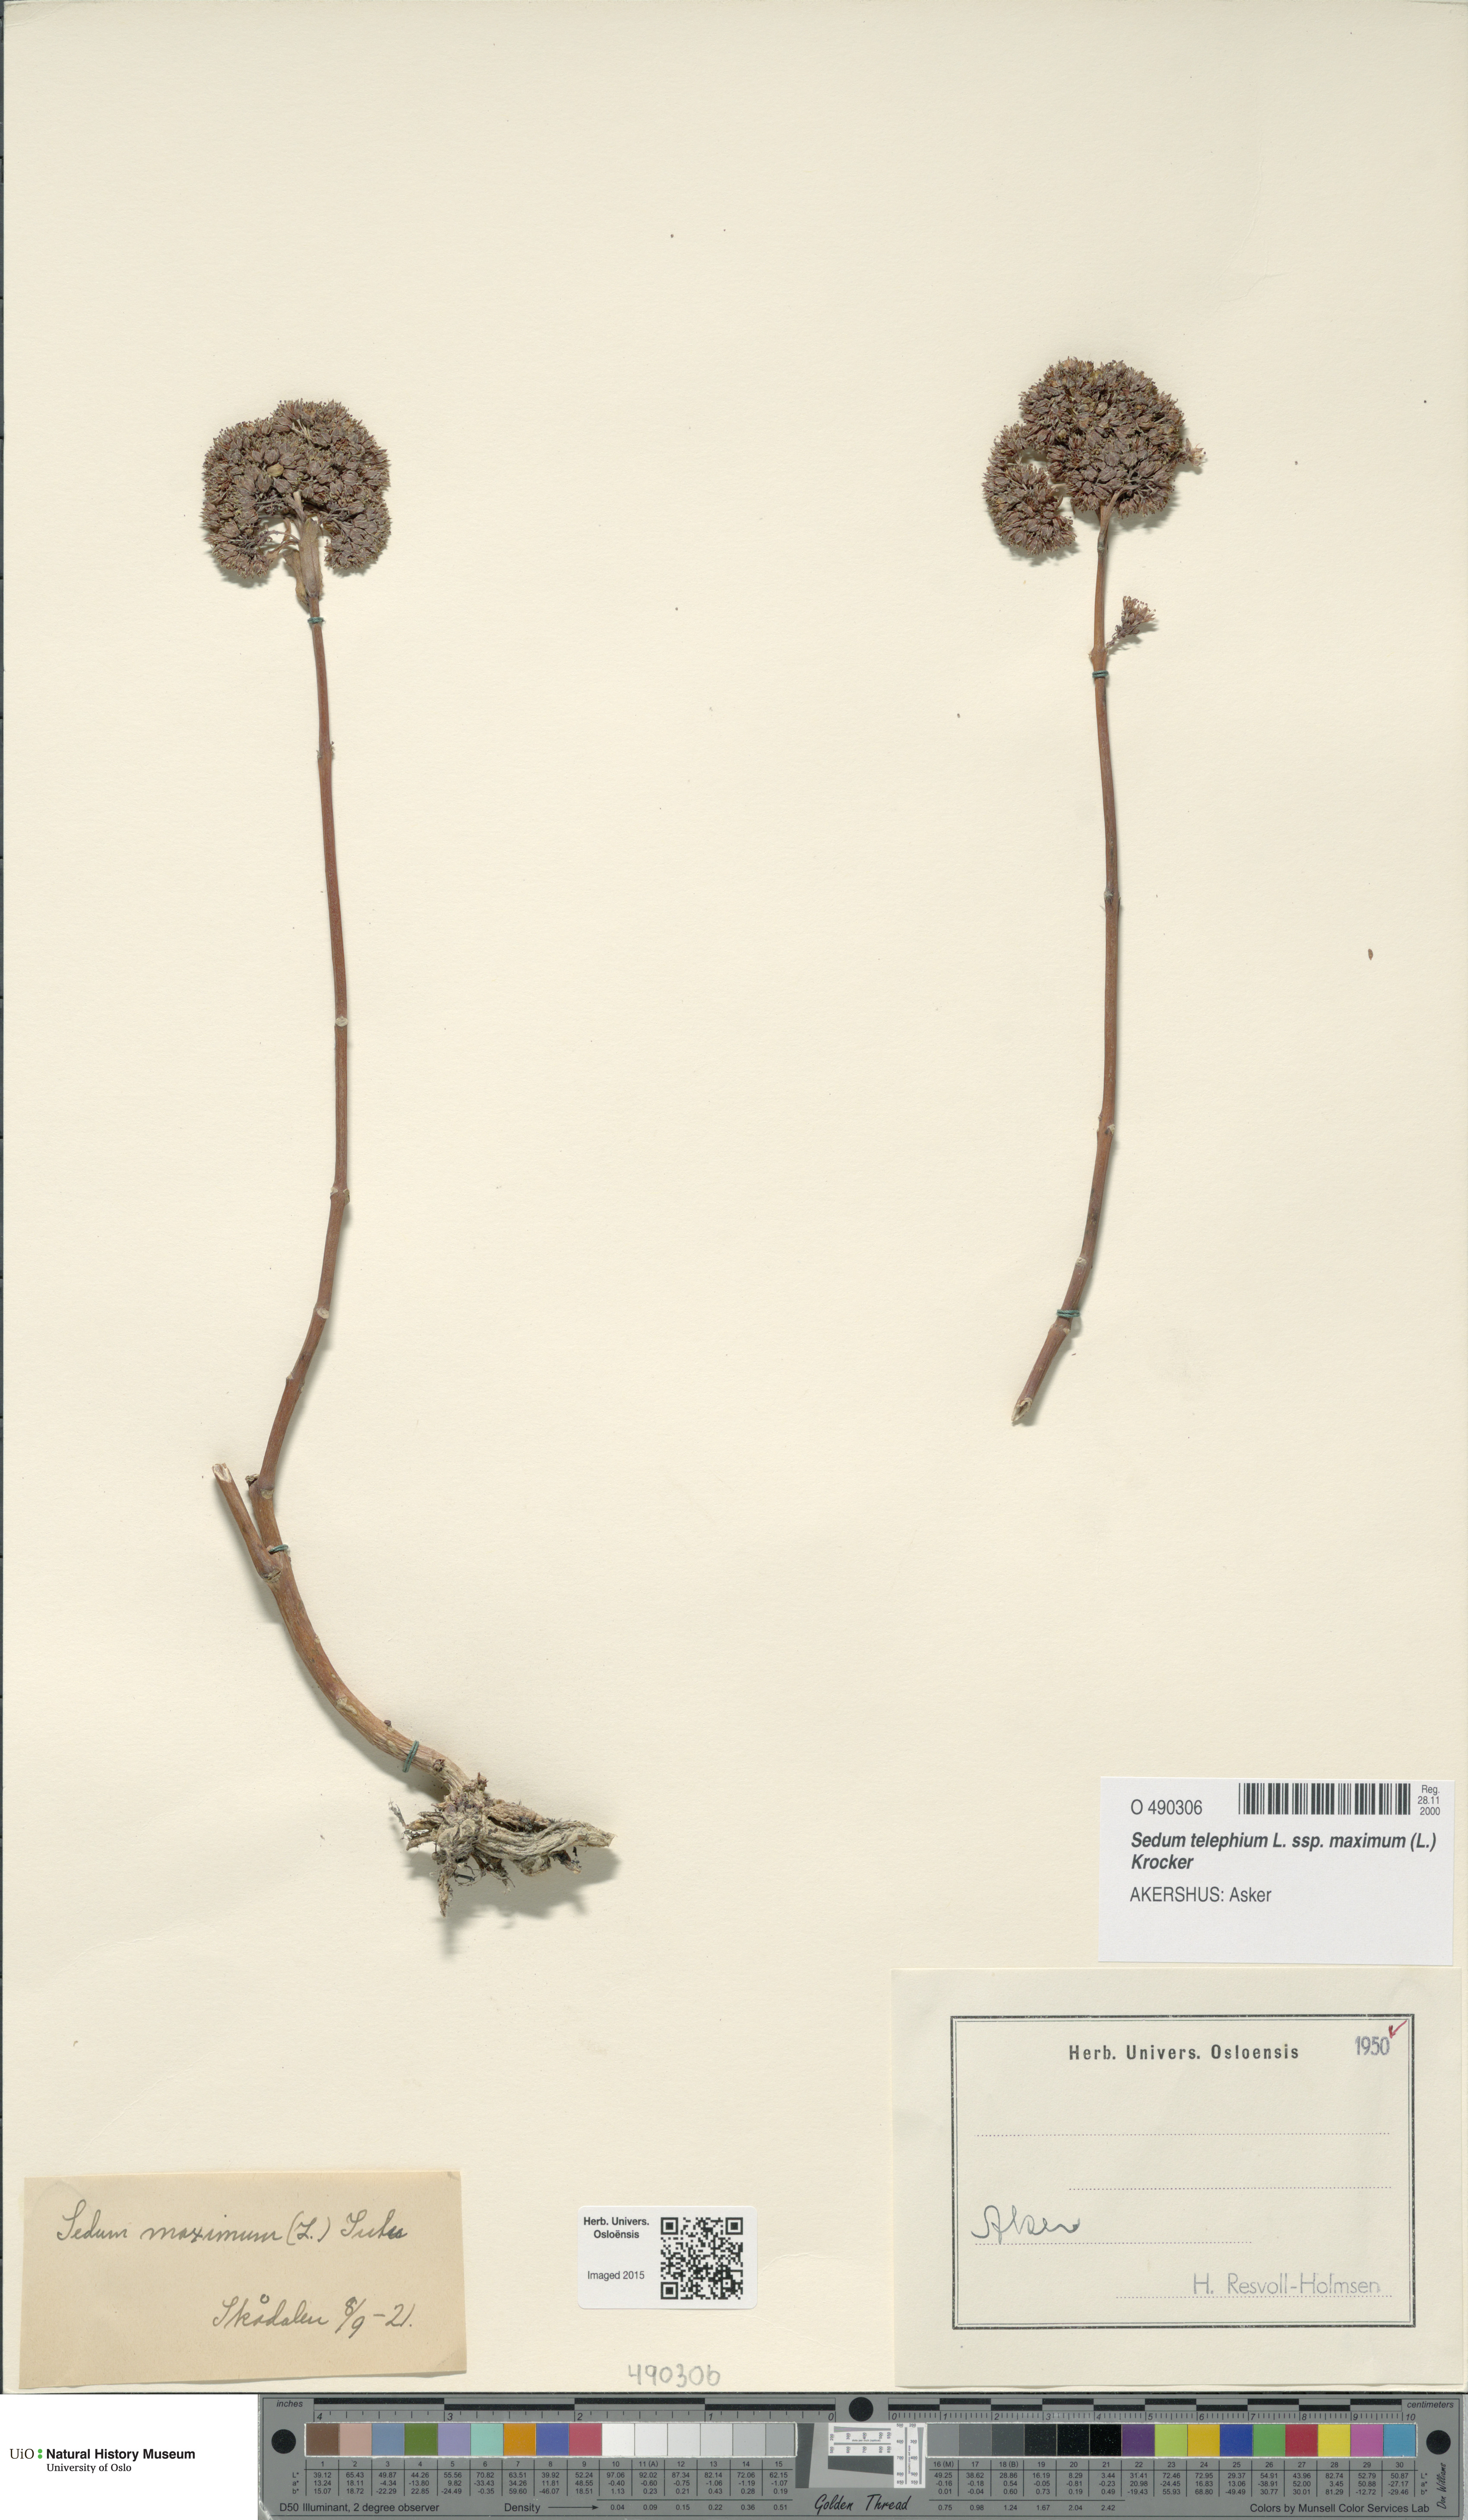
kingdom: Plantae
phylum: Tracheophyta
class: Magnoliopsida
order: Saxifragales
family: Crassulaceae
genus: Hylotelephium
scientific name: Hylotelephium maximum
